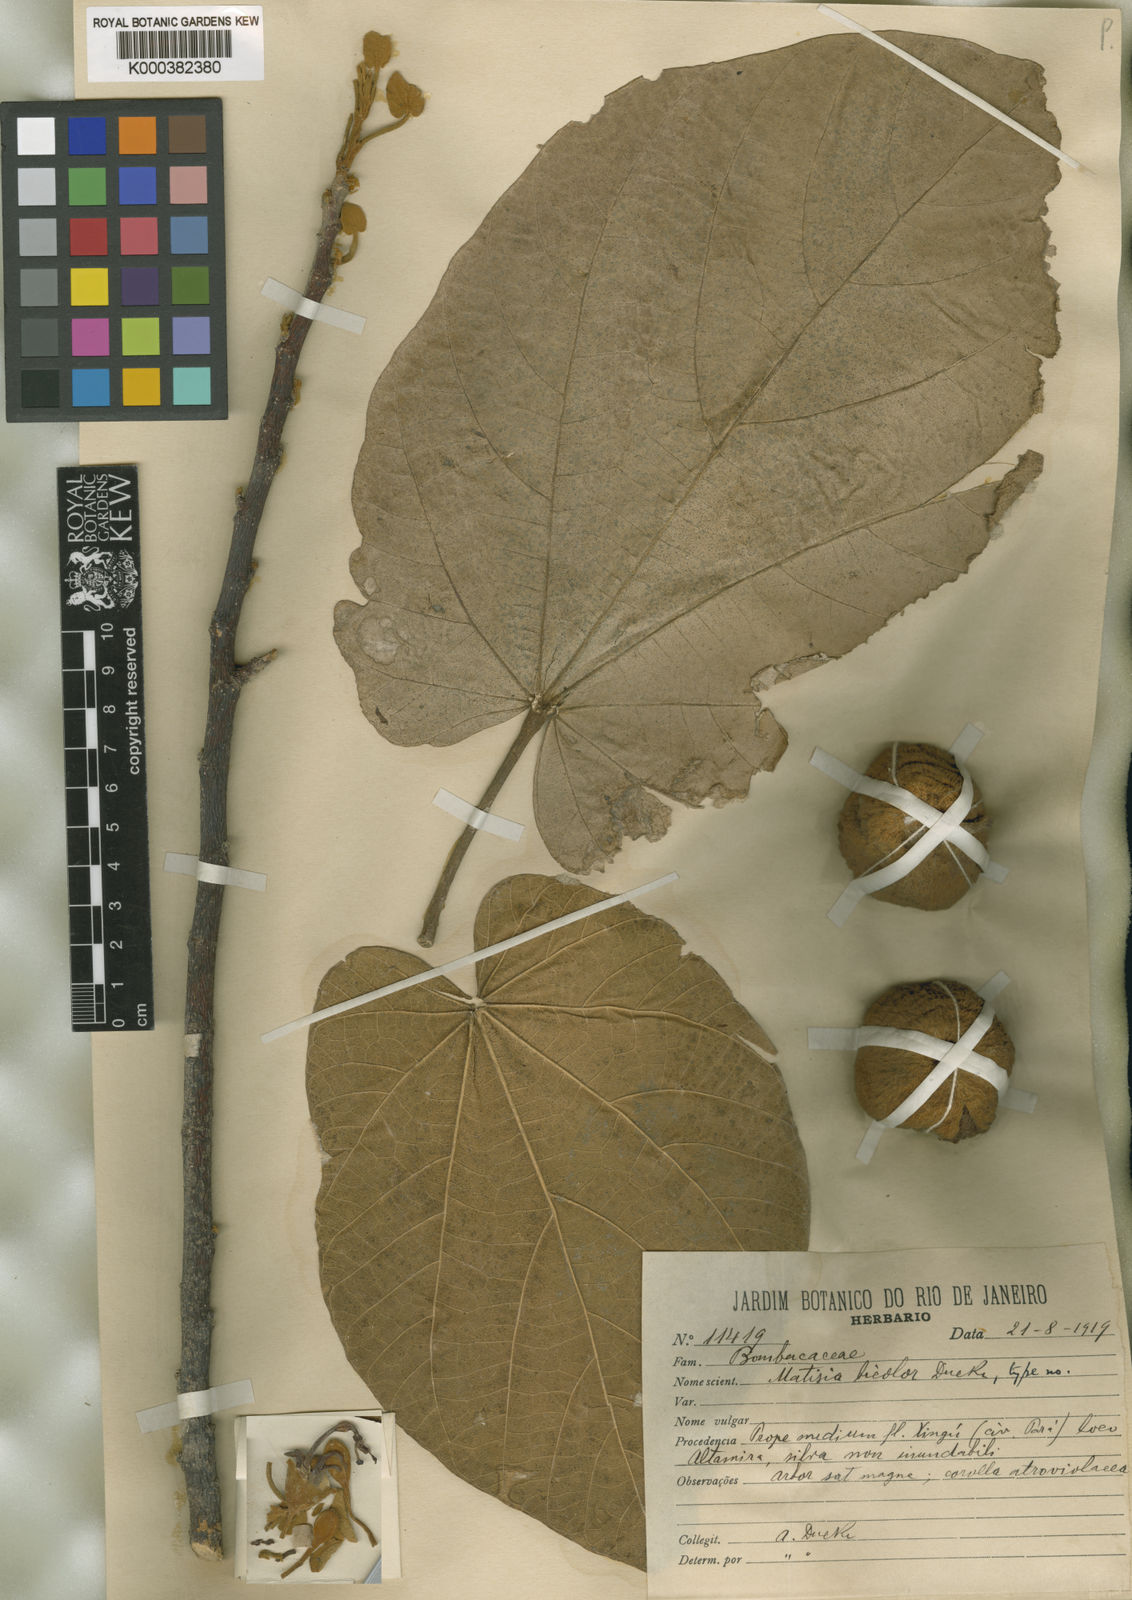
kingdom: Plantae
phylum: Tracheophyta
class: Magnoliopsida
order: Malvales
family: Malvaceae
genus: Matisia
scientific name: Matisia bicolor
